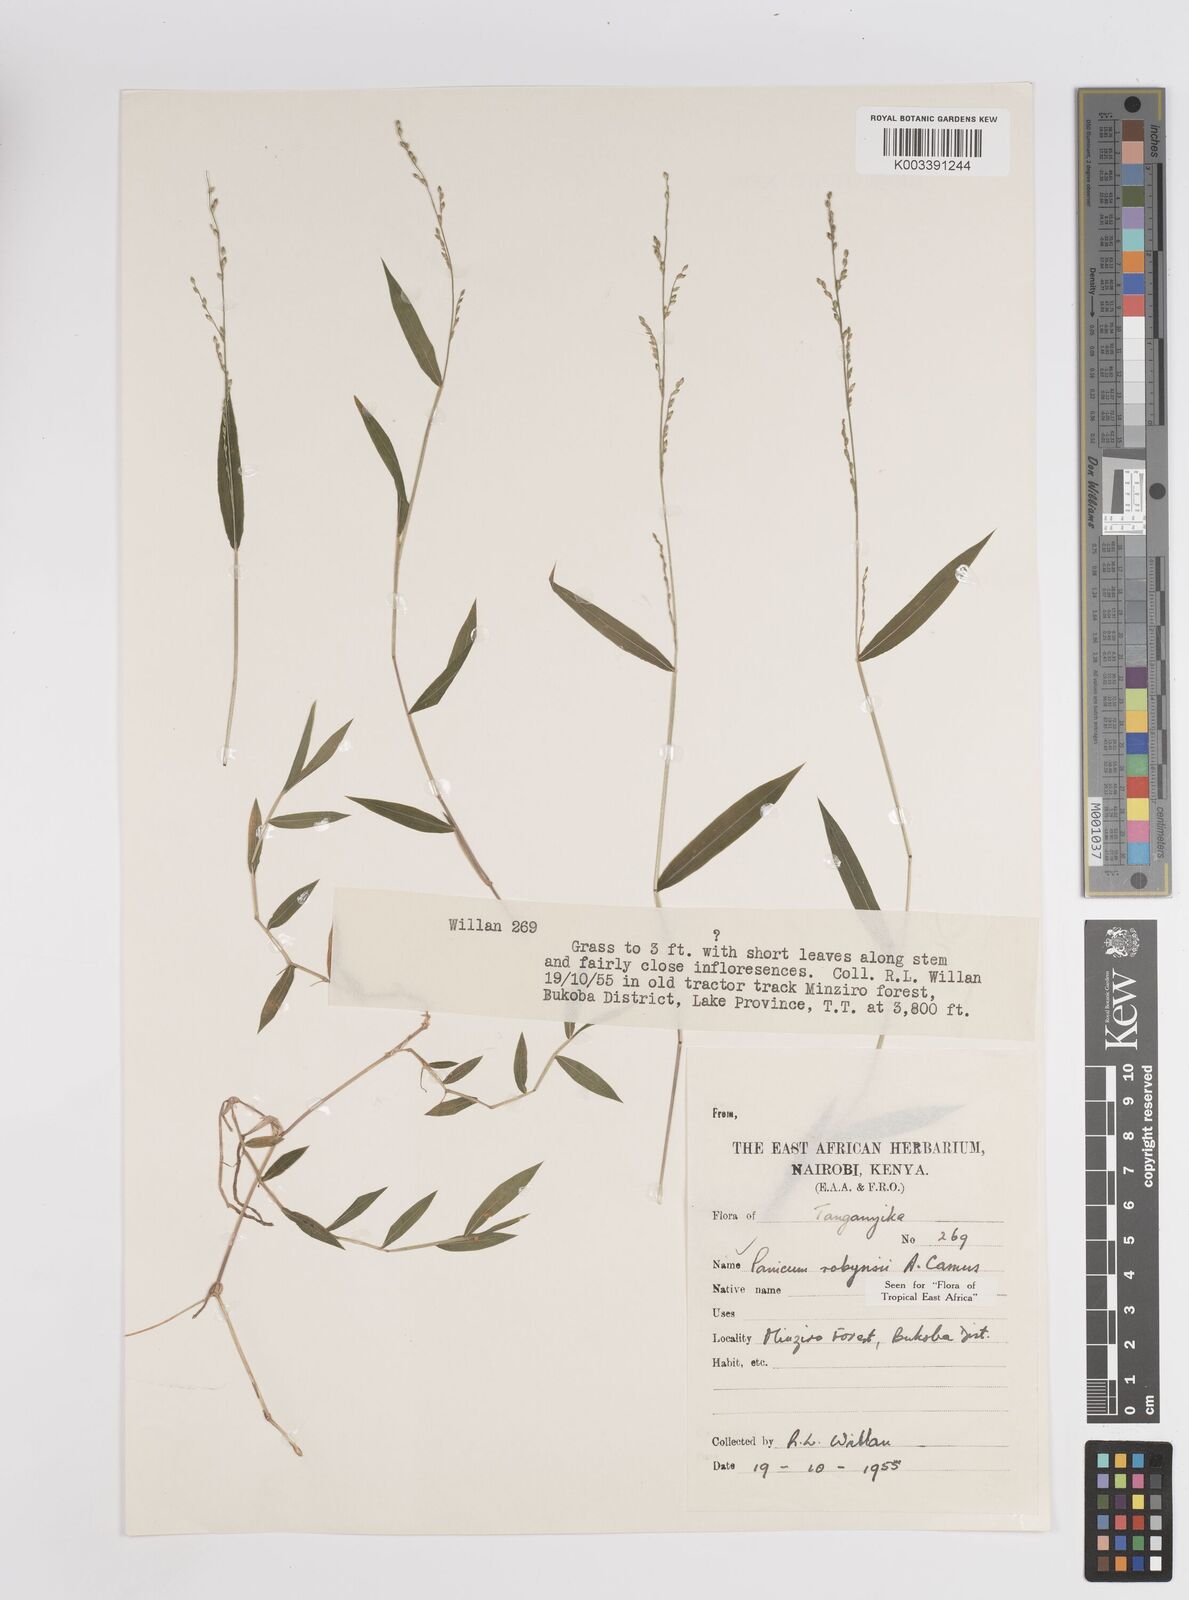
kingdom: Plantae
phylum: Tracheophyta
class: Liliopsida
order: Poales
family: Poaceae
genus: Panicum
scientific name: Panicum robynsii
